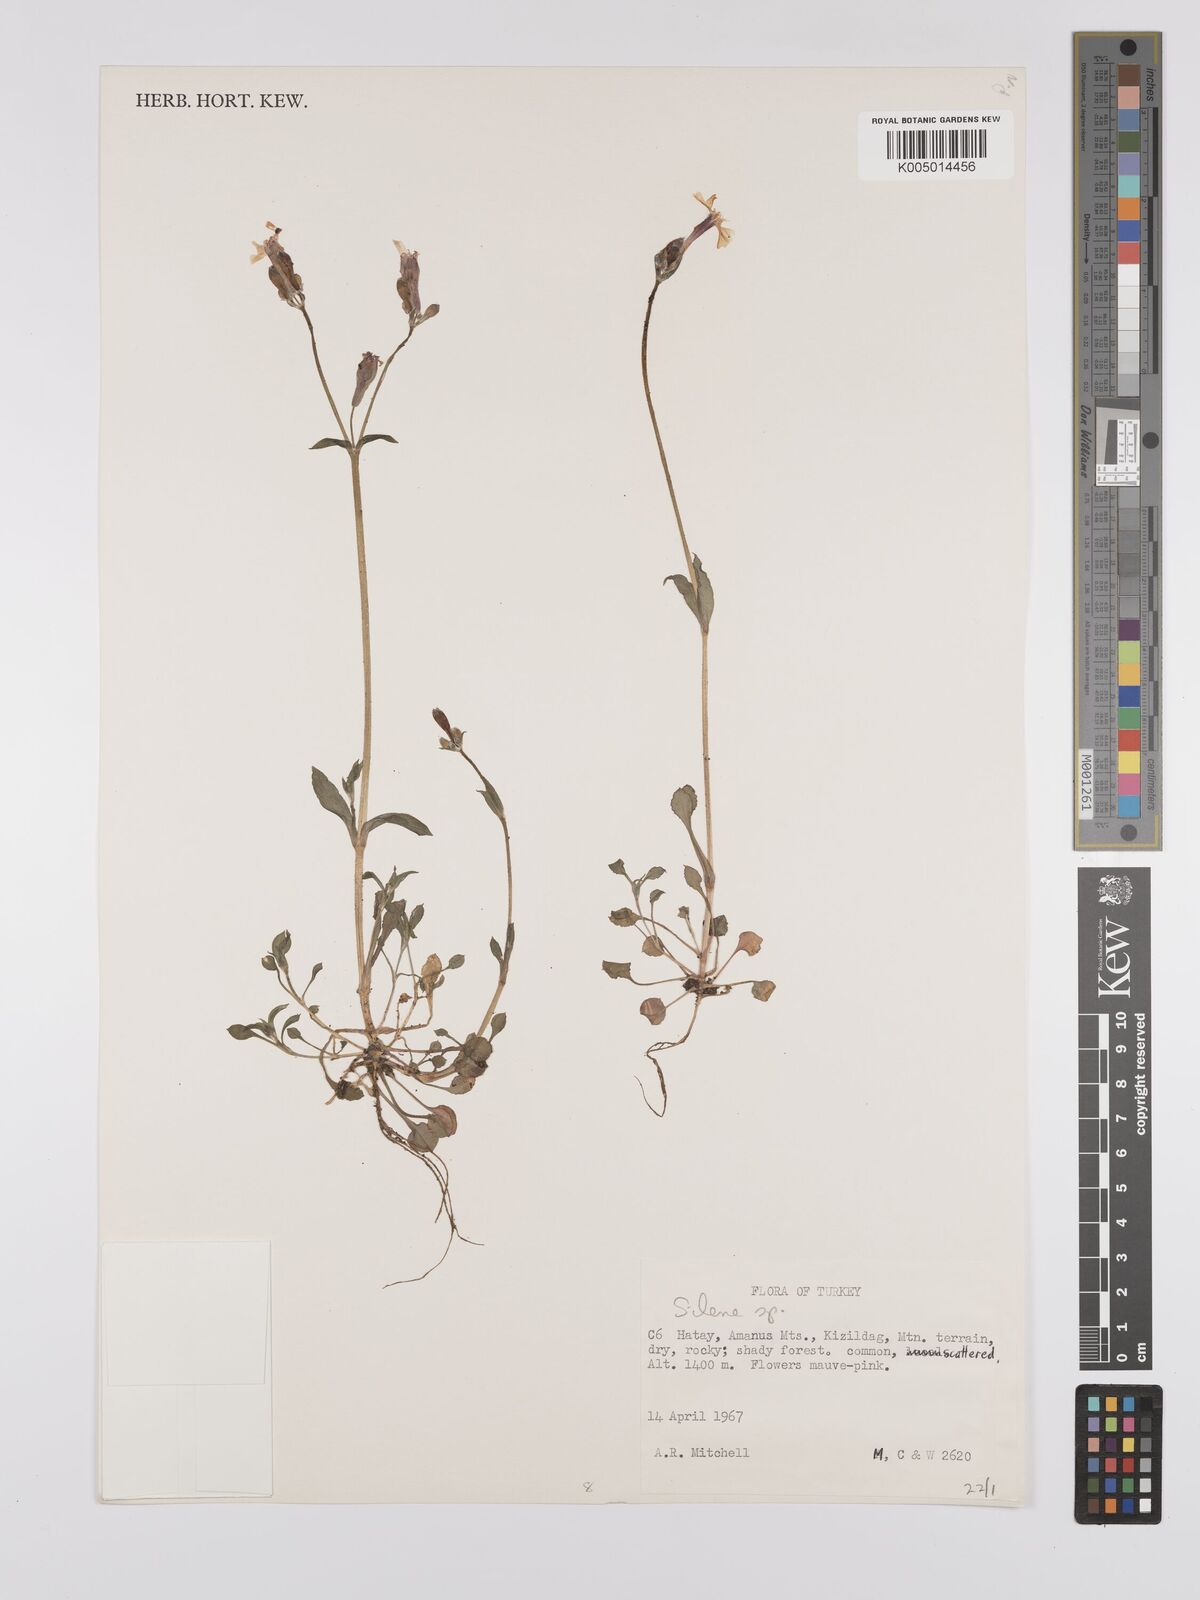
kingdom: Plantae
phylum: Tracheophyta
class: Magnoliopsida
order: Caryophyllales
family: Caryophyllaceae
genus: Silene
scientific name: Silene
